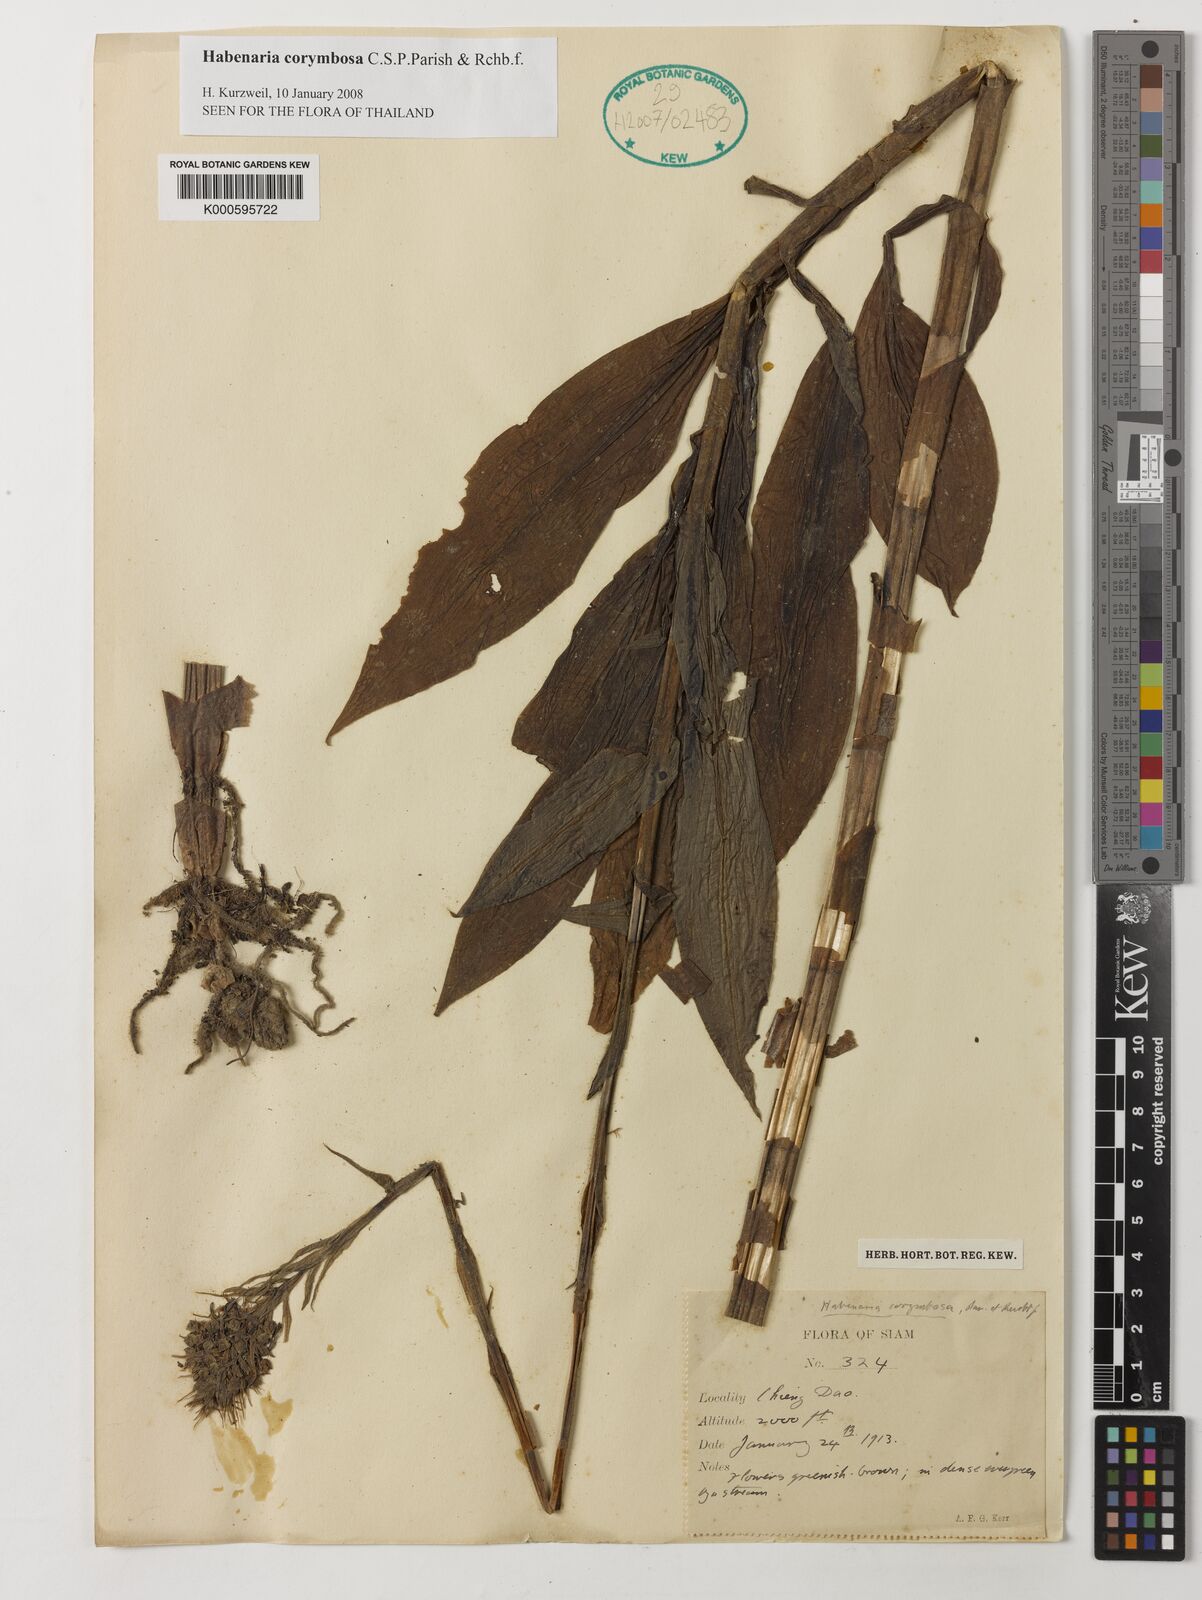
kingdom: Plantae
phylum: Tracheophyta
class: Liliopsida
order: Asparagales
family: Orchidaceae
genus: Habenaria
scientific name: Habenaria corymbosa
